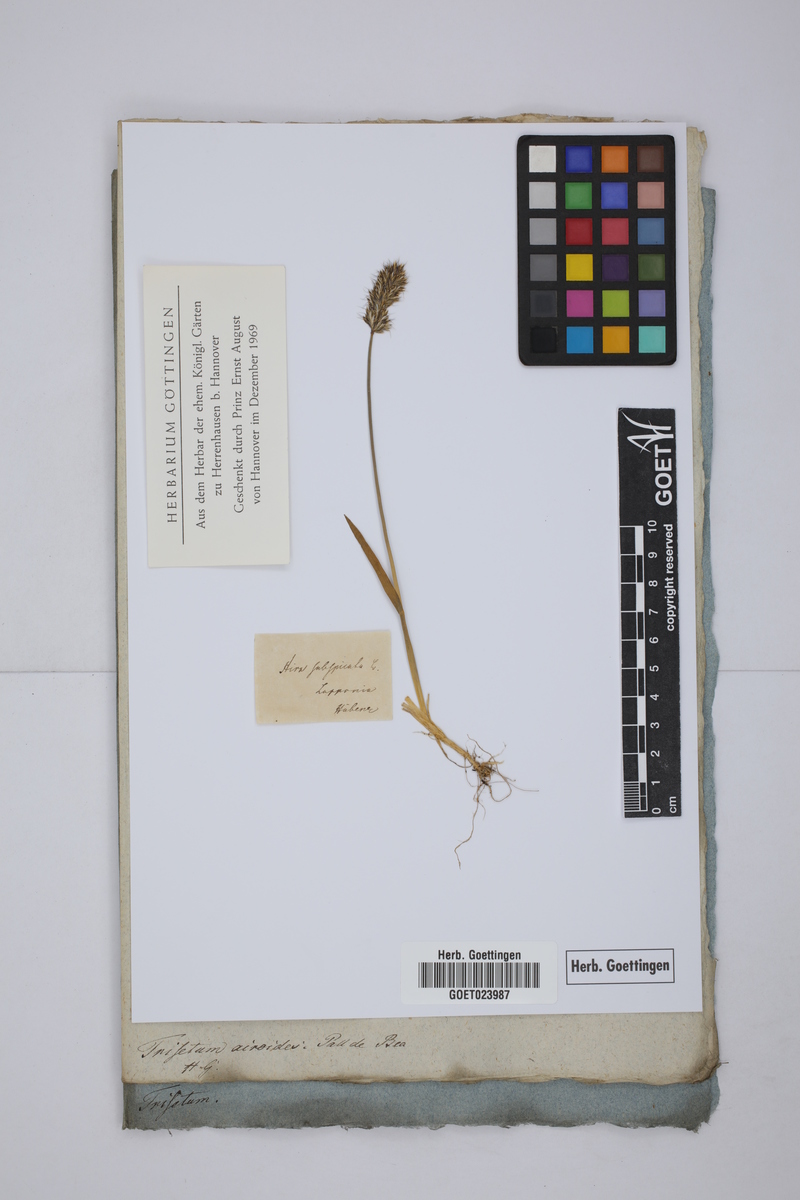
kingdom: Plantae
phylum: Tracheophyta
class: Liliopsida
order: Poales
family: Poaceae
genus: Koeleria
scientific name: Koeleria spicata
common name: Mountain trisetum
